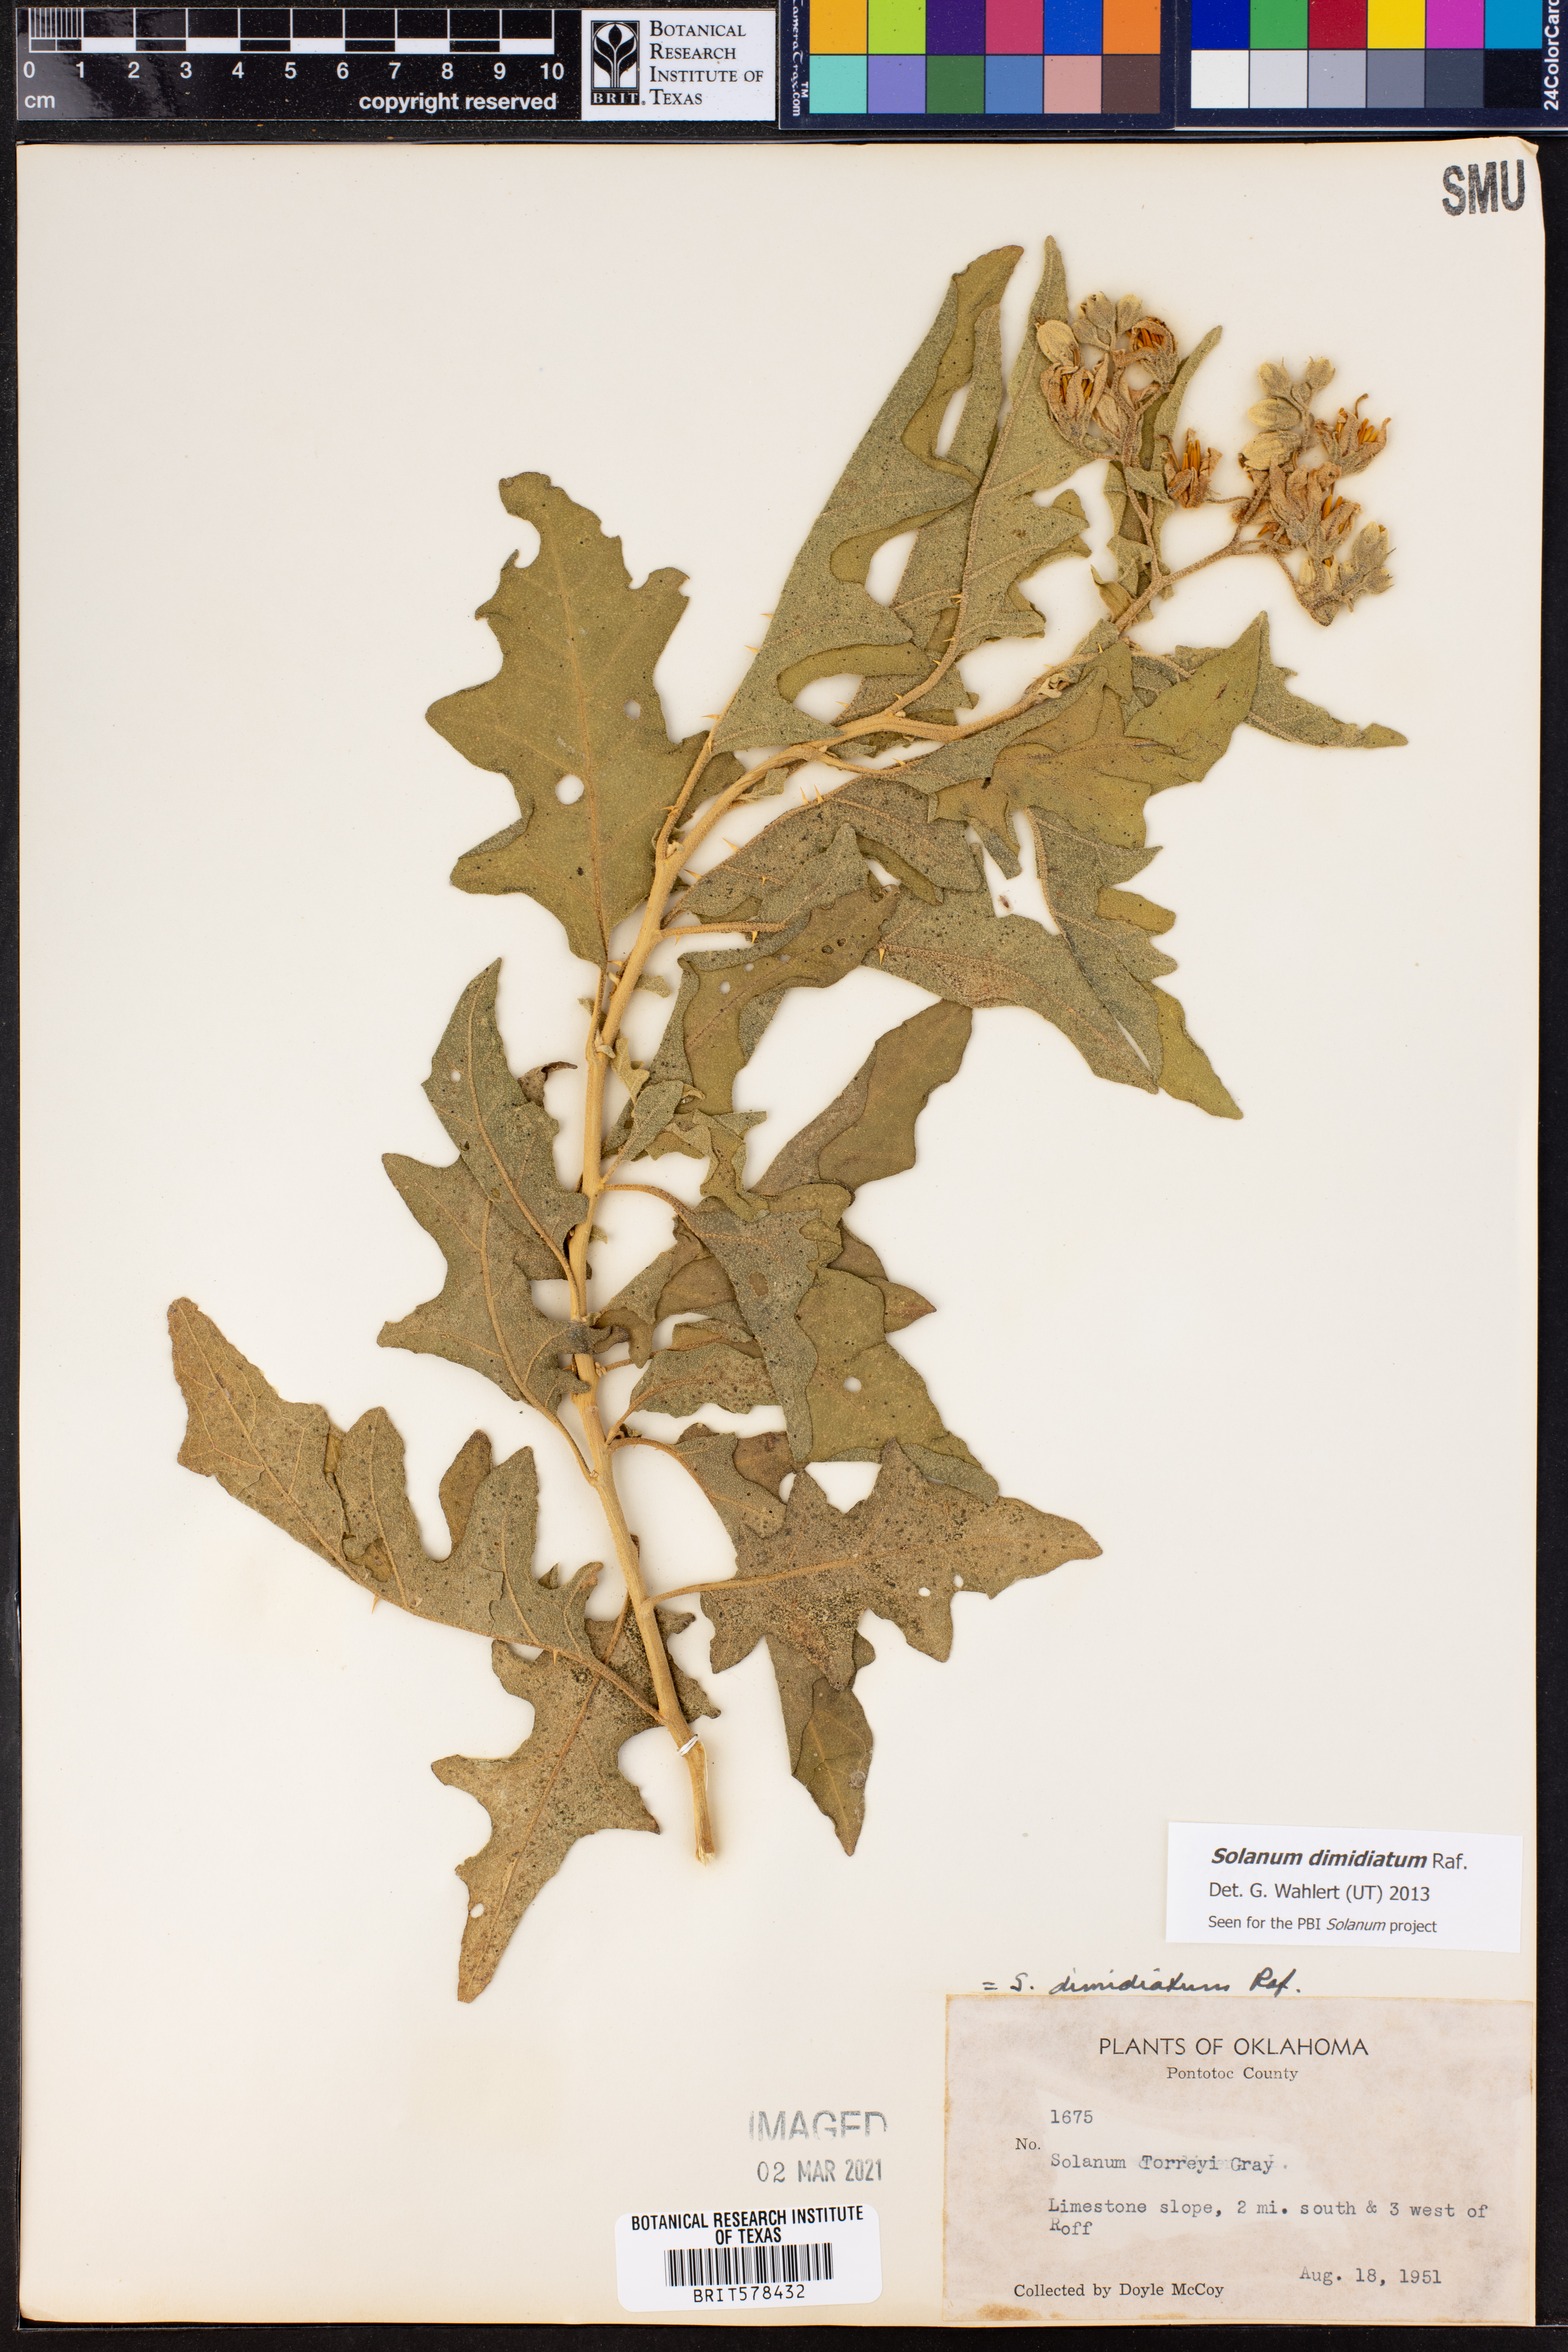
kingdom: Plantae
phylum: Tracheophyta
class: Magnoliopsida
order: Solanales
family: Solanaceae
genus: Solanum
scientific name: Solanum dimidiatum
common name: Carolina horse-nettle
